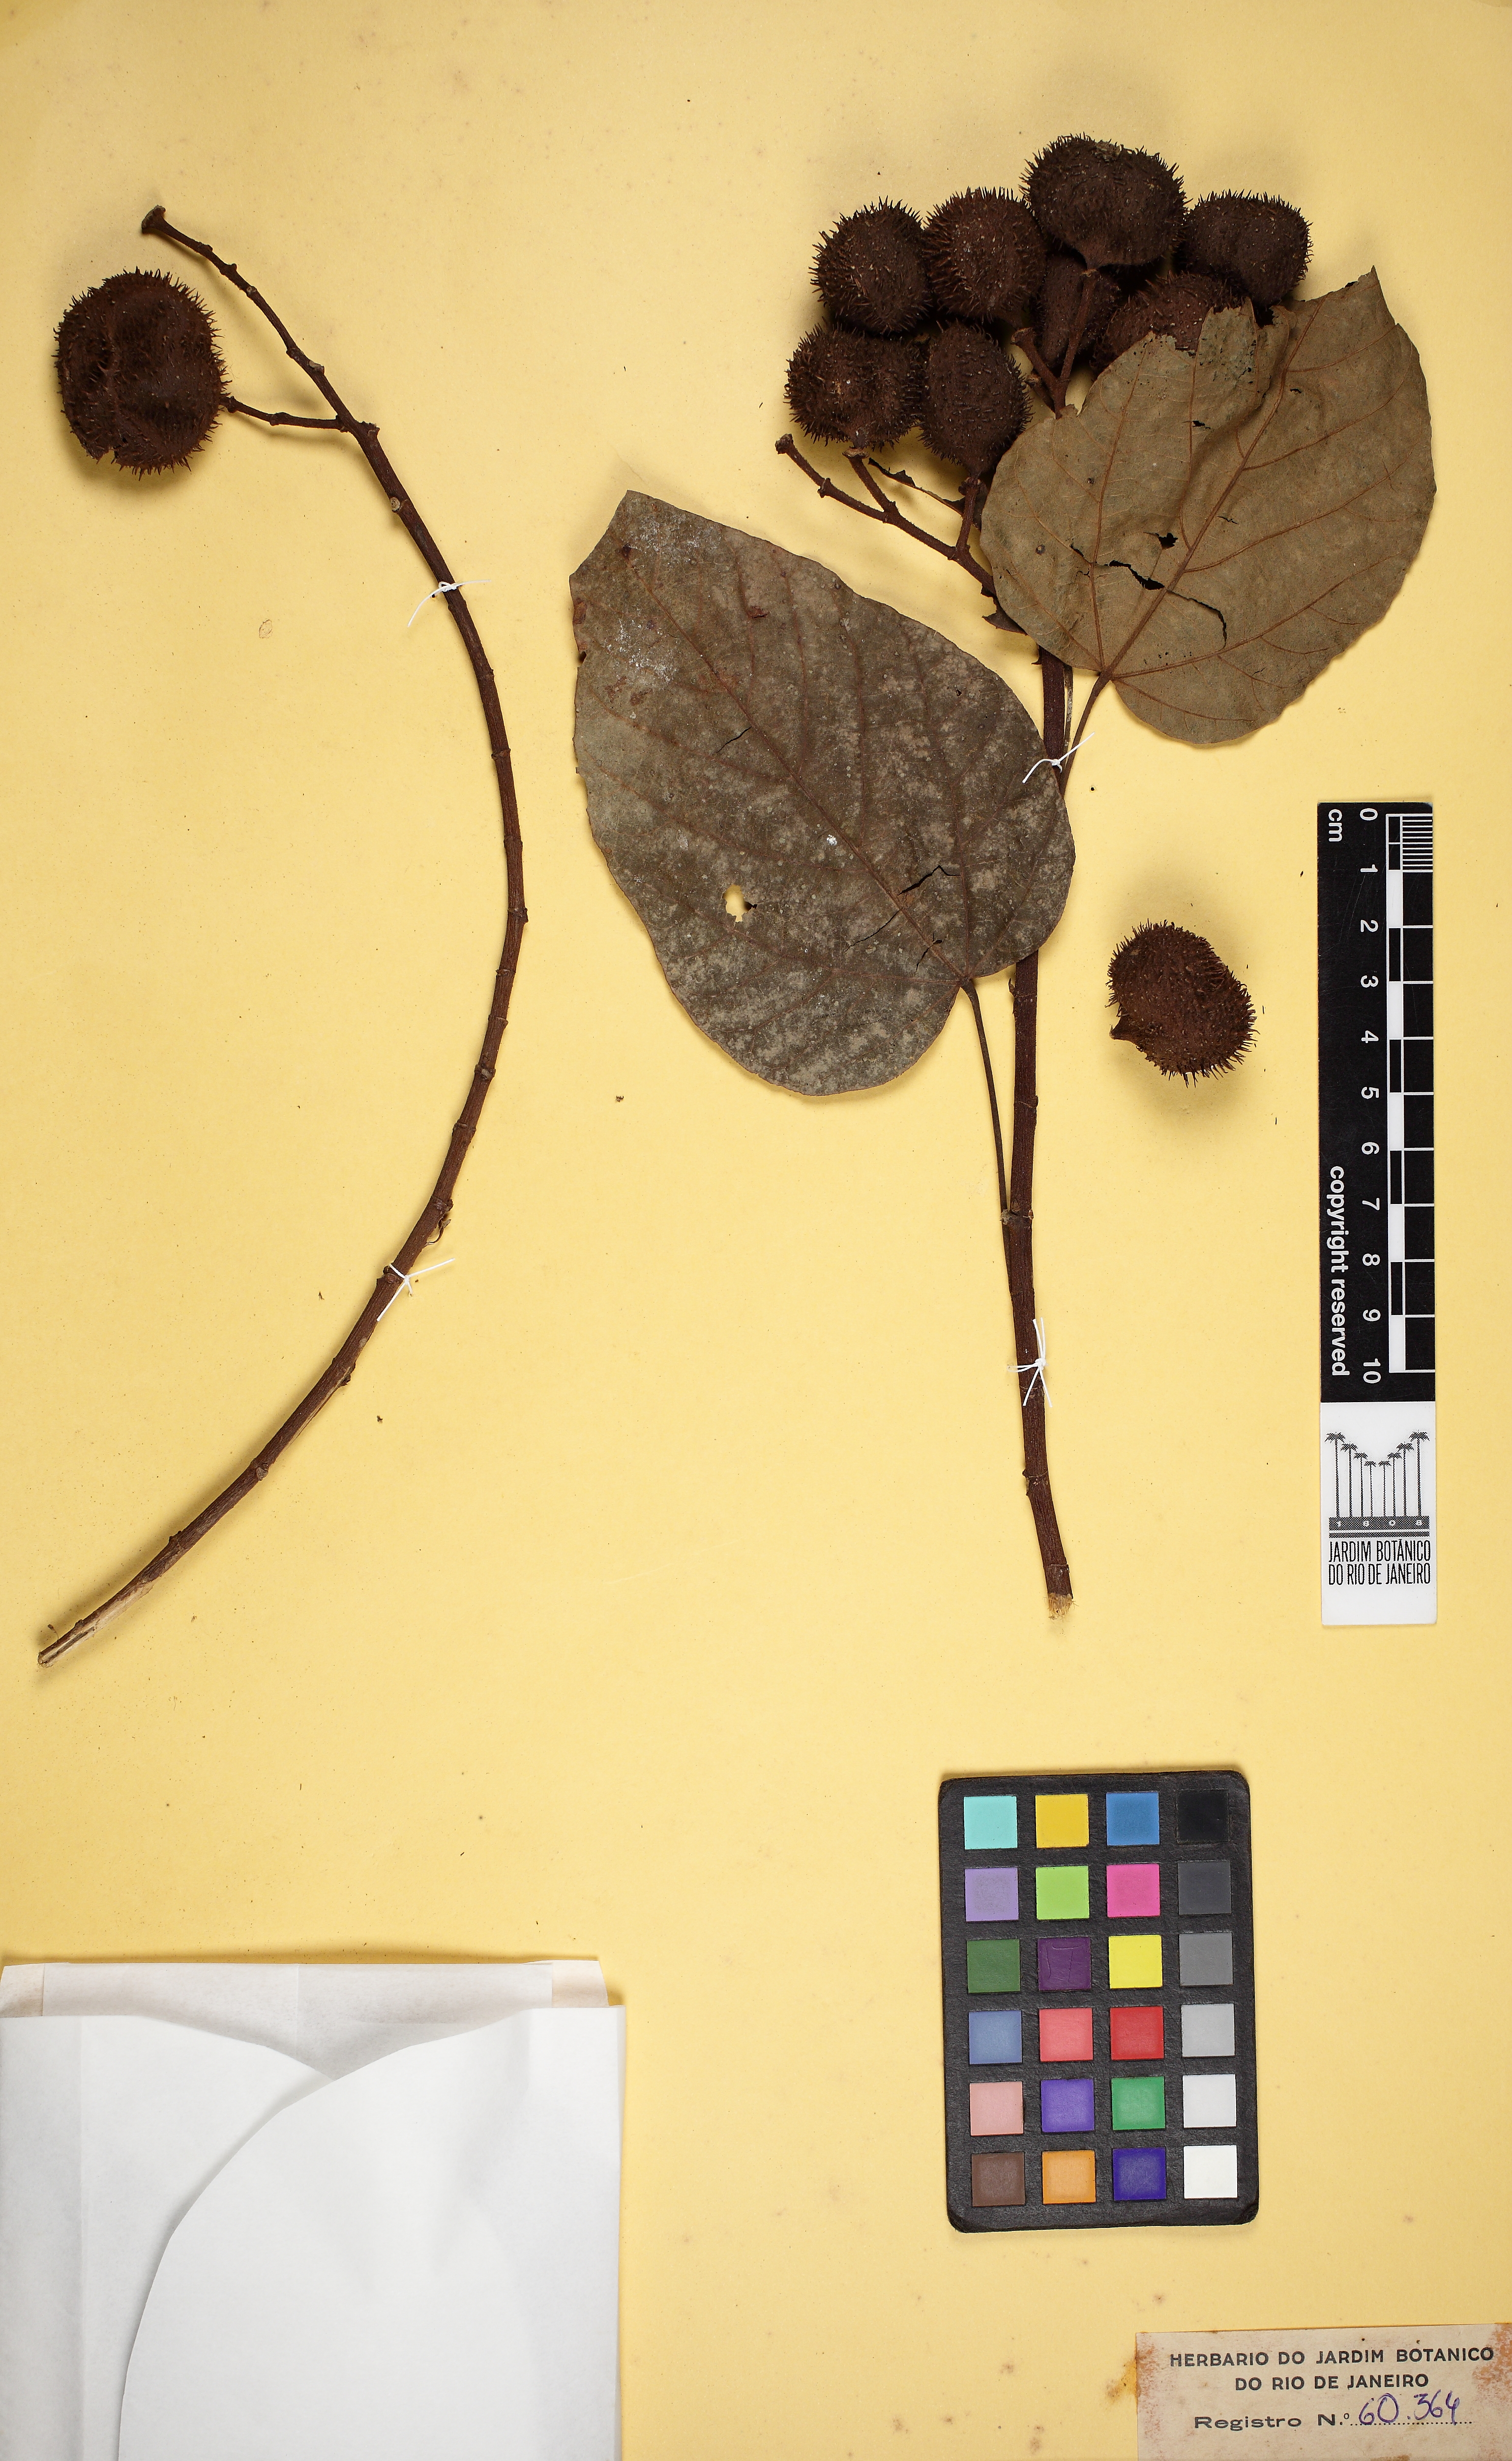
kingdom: Plantae
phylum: Tracheophyta
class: Magnoliopsida
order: Malvales
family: Bixaceae
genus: Bixa
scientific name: Bixa orellana
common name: Lipsticktree
